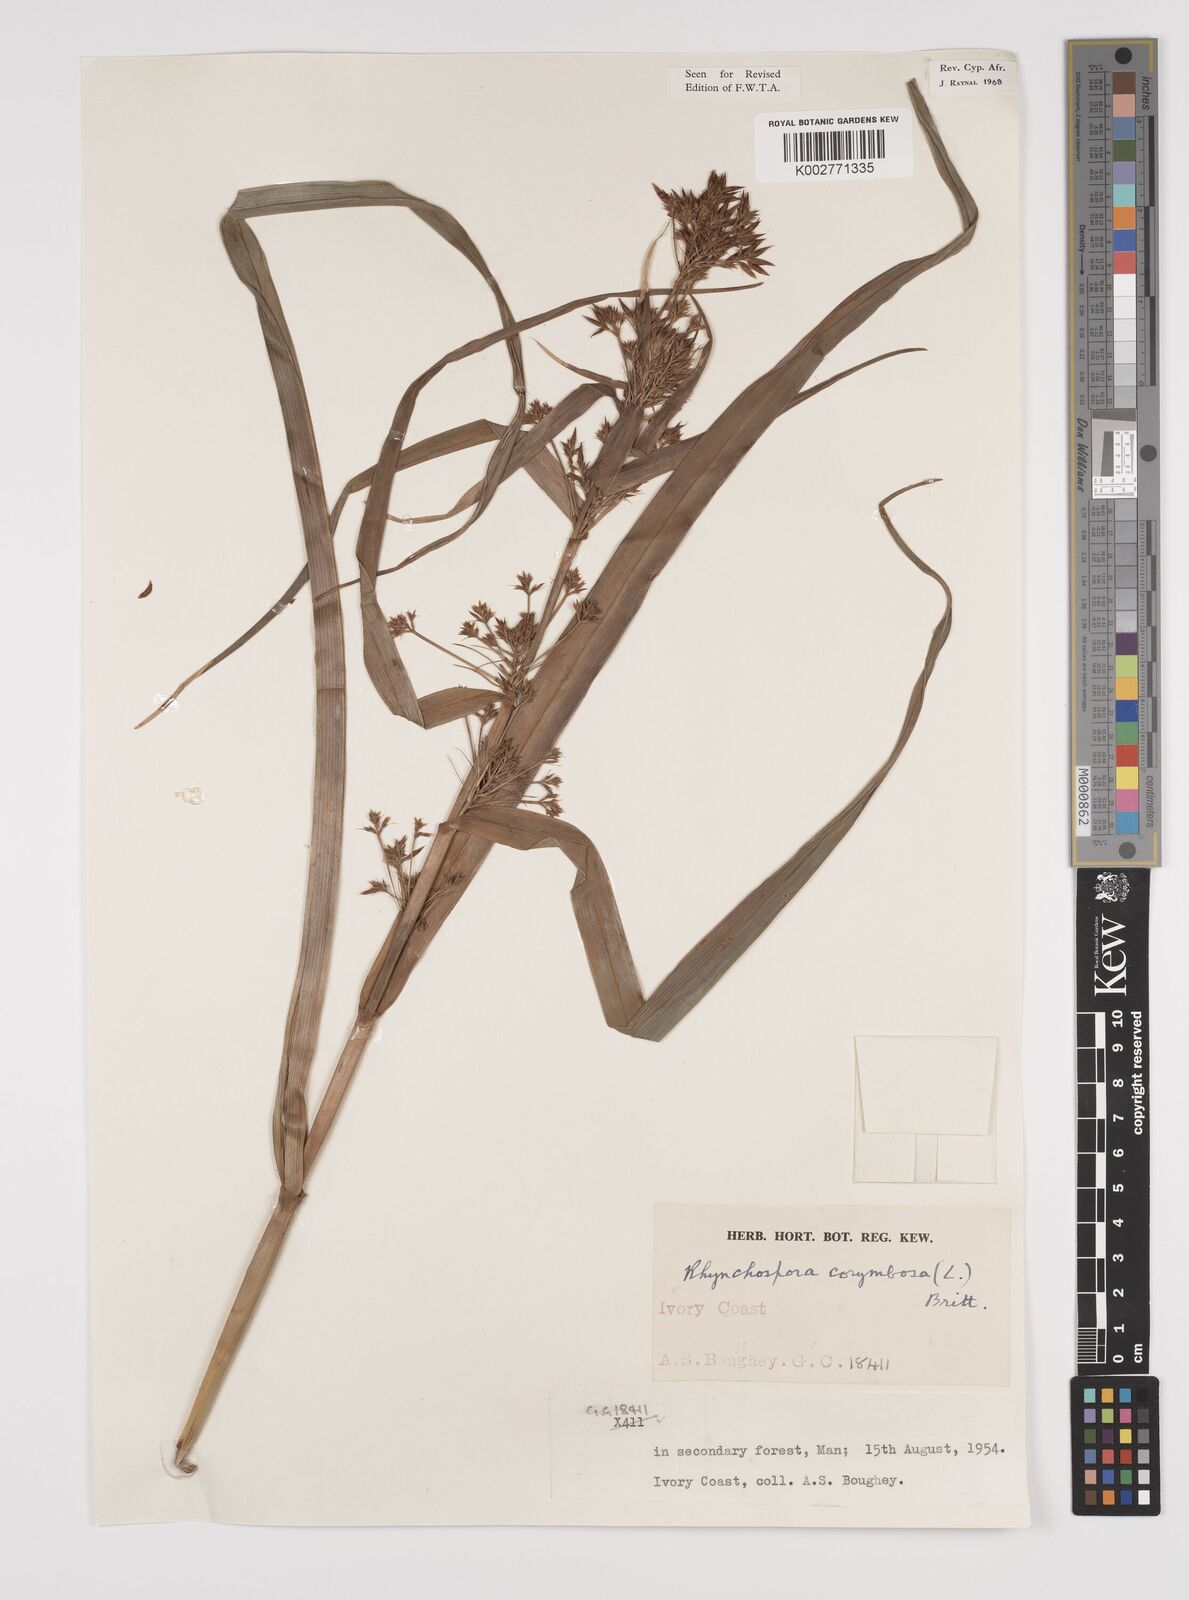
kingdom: Plantae
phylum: Tracheophyta
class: Liliopsida
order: Poales
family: Cyperaceae
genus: Rhynchospora
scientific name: Rhynchospora corymbosa
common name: Golden beak sedge
